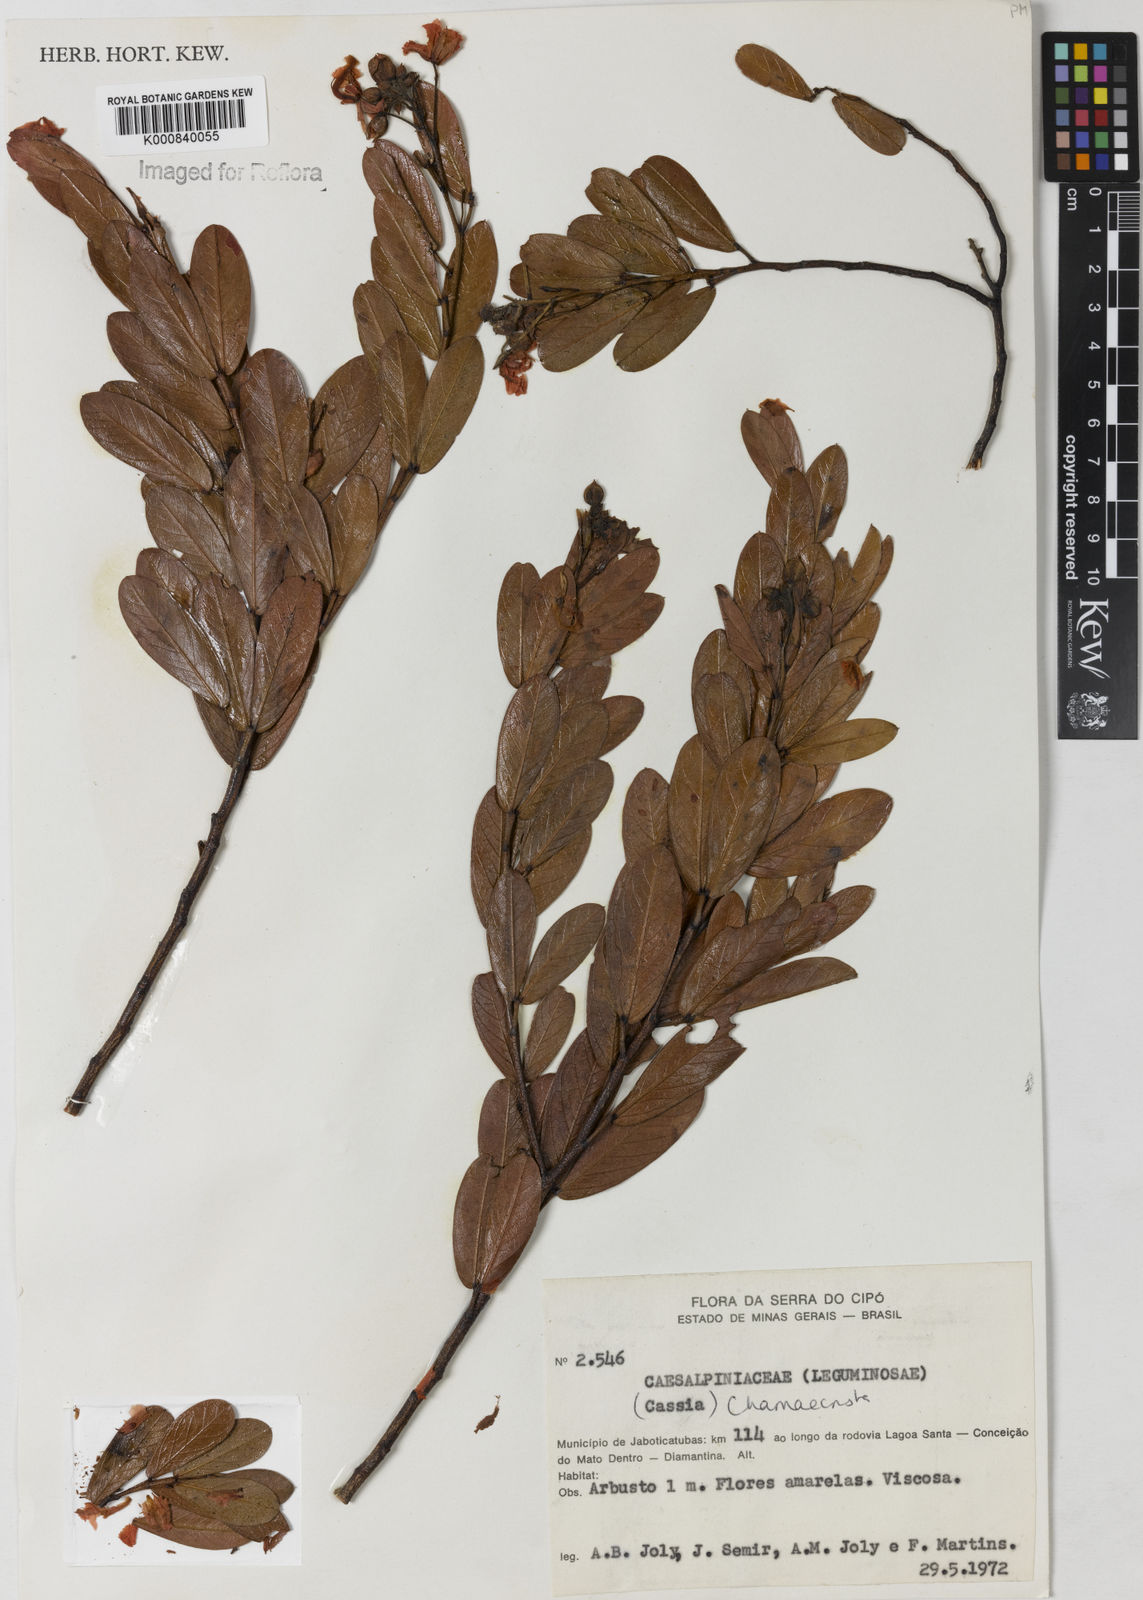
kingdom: Plantae
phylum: Tracheophyta
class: Magnoliopsida
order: Fabales
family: Fabaceae
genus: Chamaecrista
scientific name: Chamaecrista semaphora
